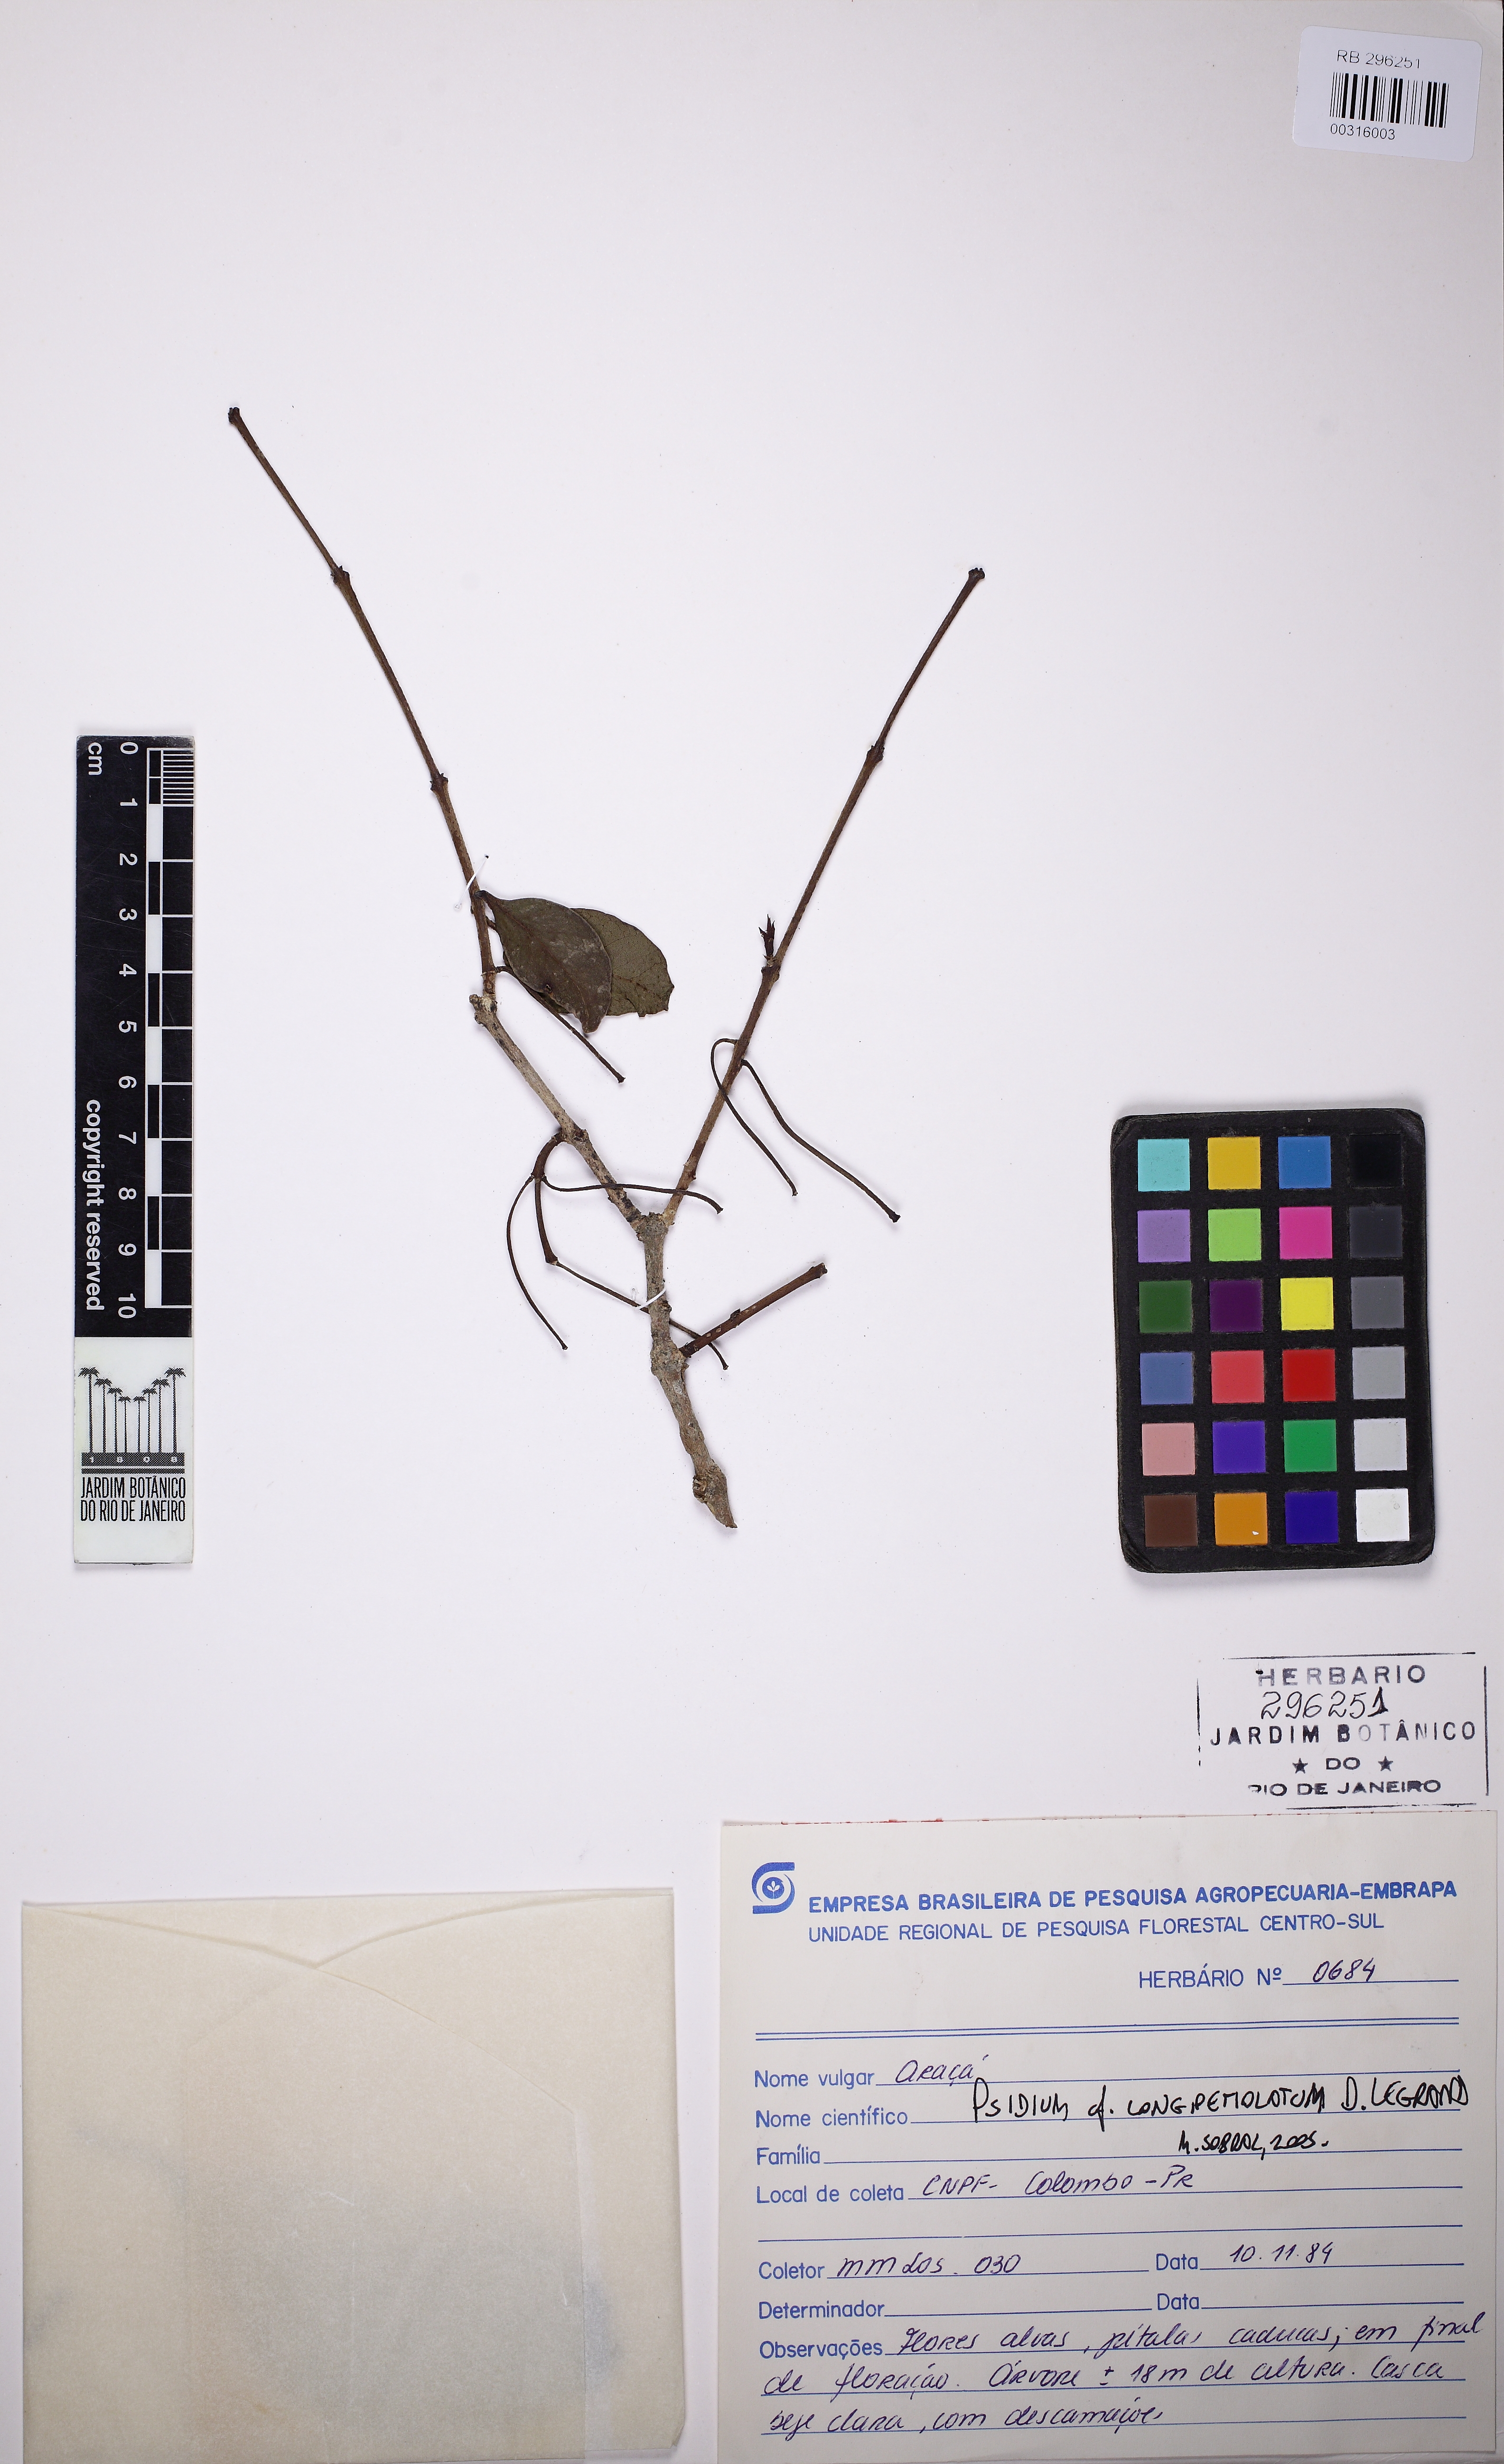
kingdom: Plantae
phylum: Tracheophyta
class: Magnoliopsida
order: Myrtales
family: Myrtaceae
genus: Psidium
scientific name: Psidium longipetiolatum
